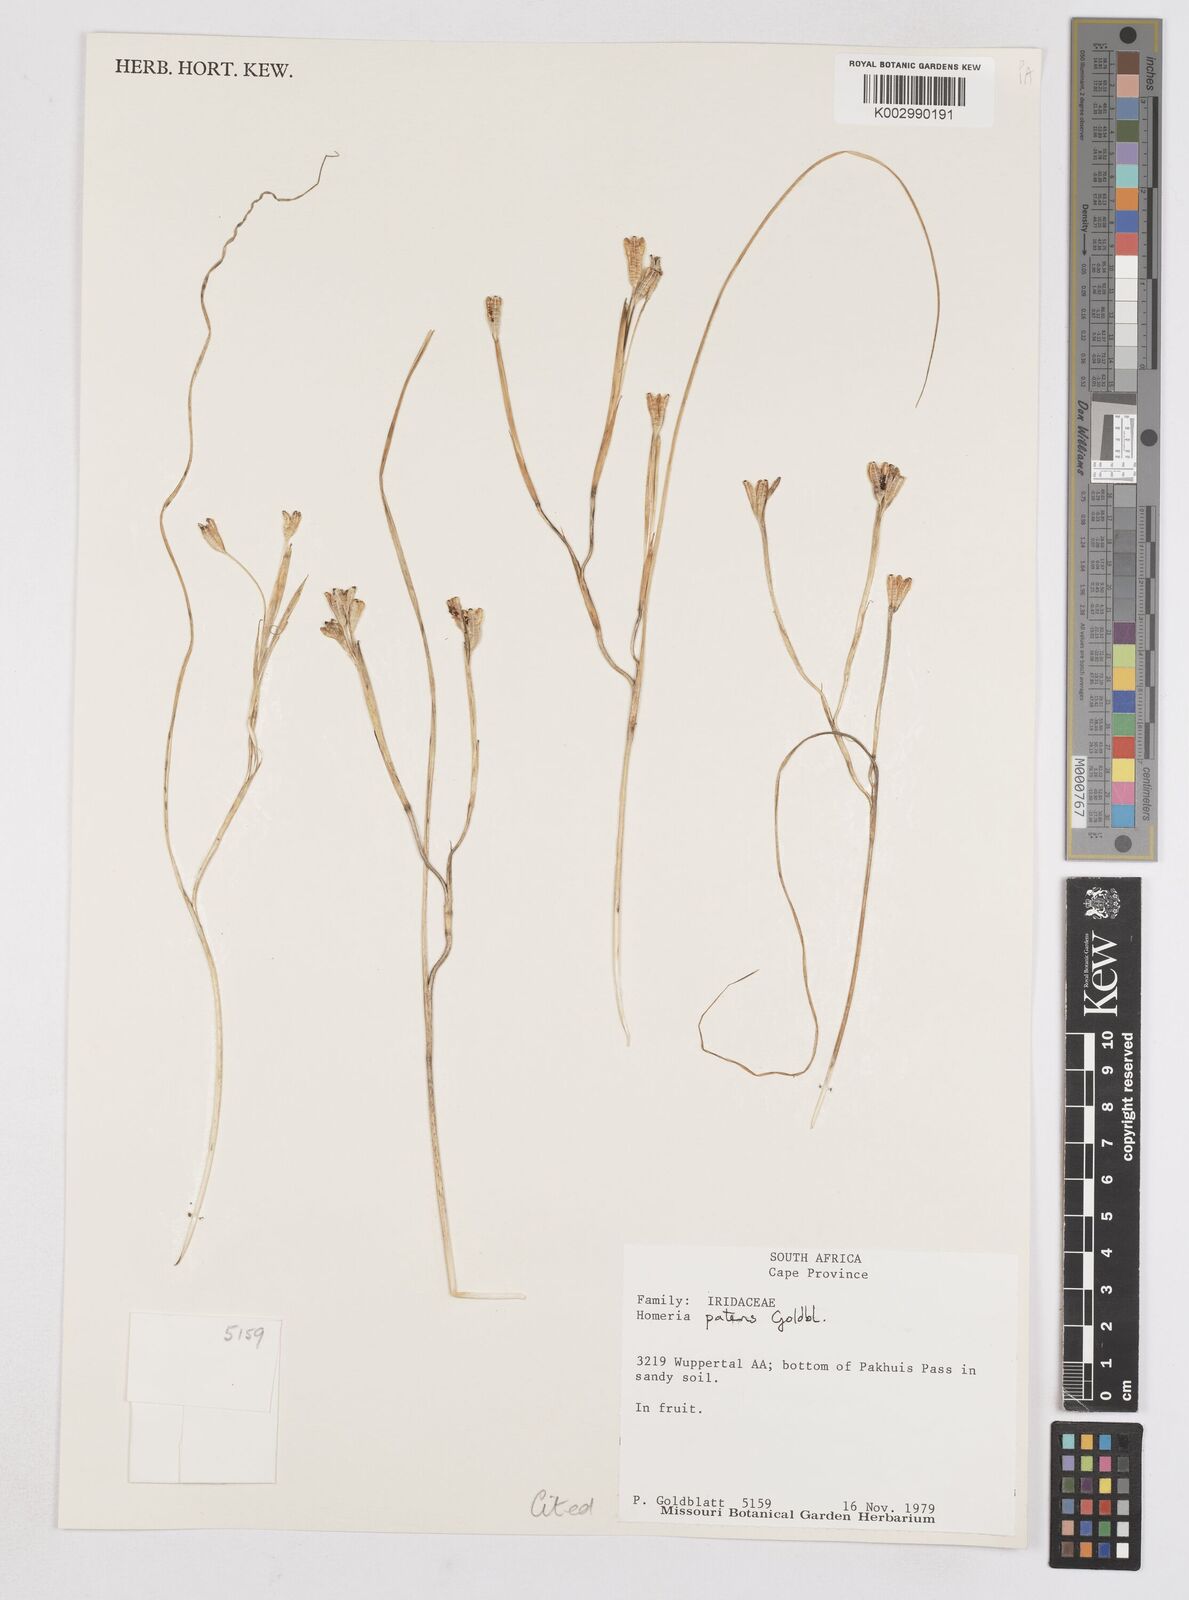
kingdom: Plantae
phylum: Tracheophyta
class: Liliopsida
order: Asparagales
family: Iridaceae
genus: Moraea
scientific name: Moraea patens
